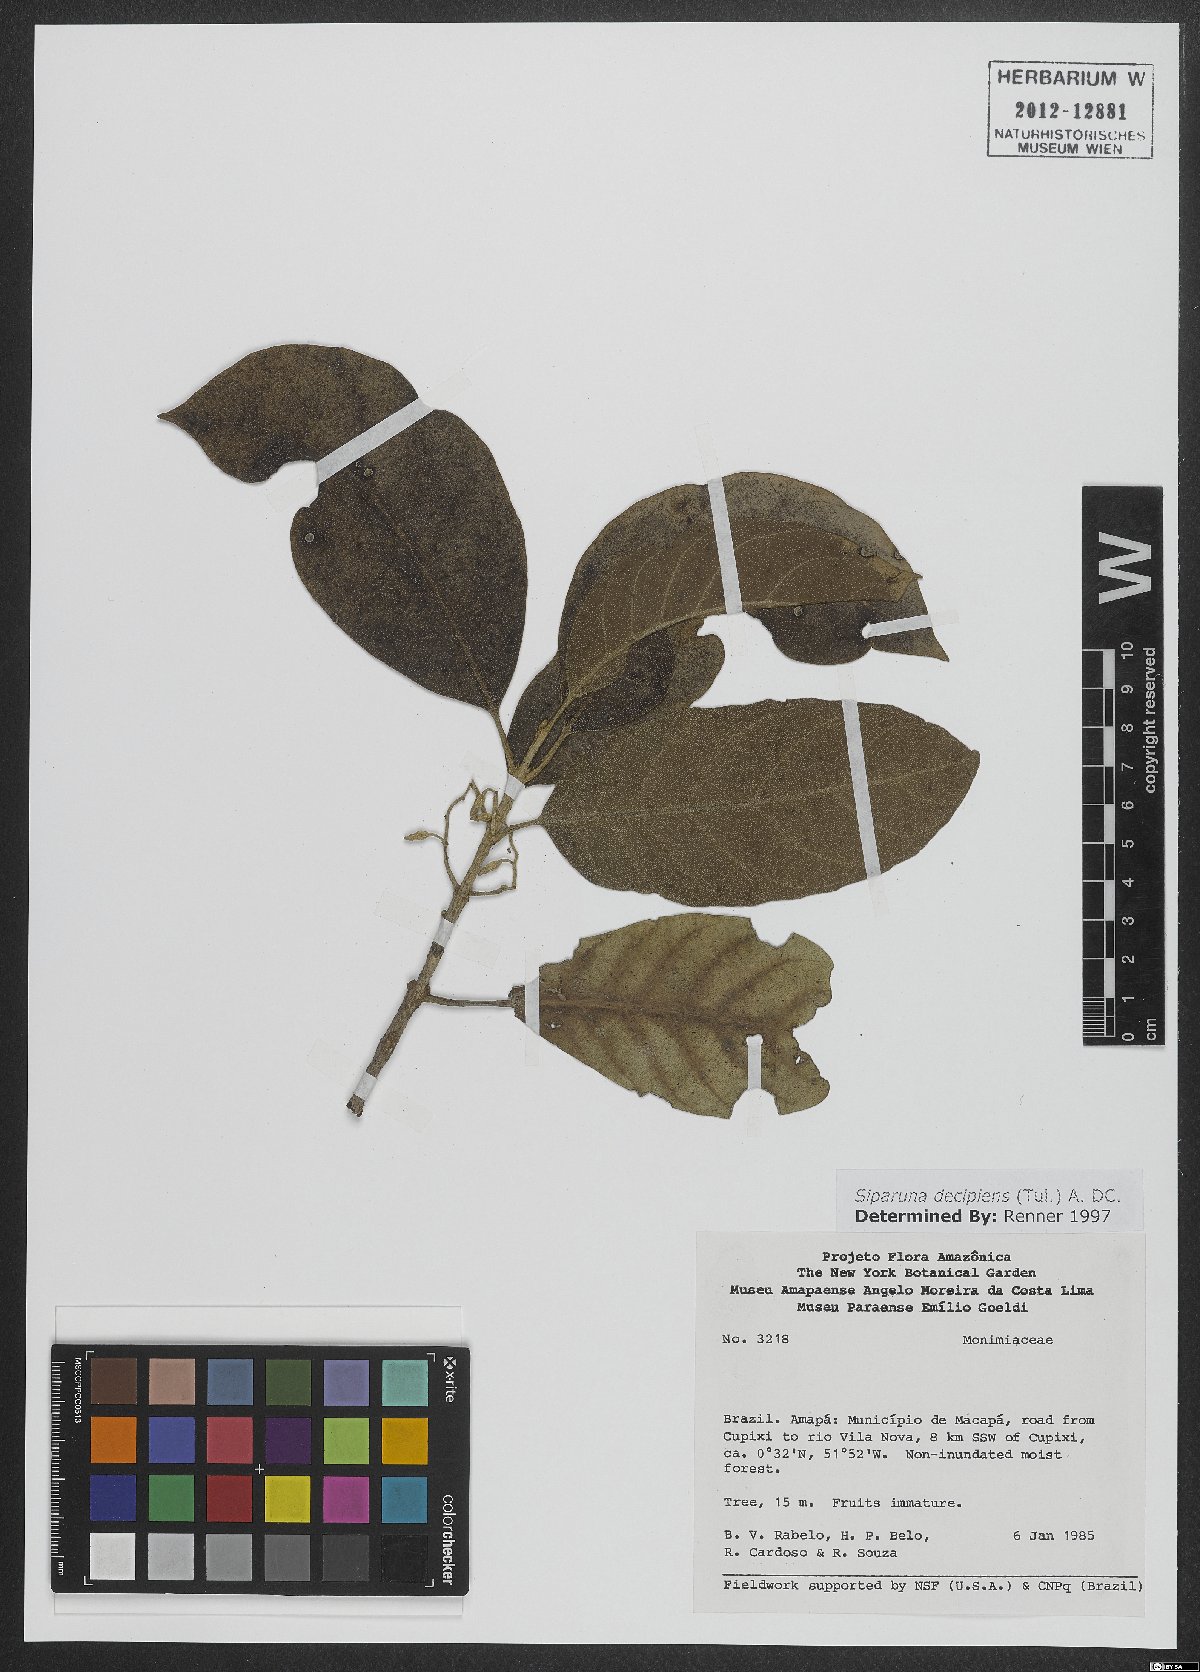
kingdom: Plantae
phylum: Tracheophyta
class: Magnoliopsida
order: Laurales
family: Siparunaceae
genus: Siparuna
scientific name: Siparuna decipiens
